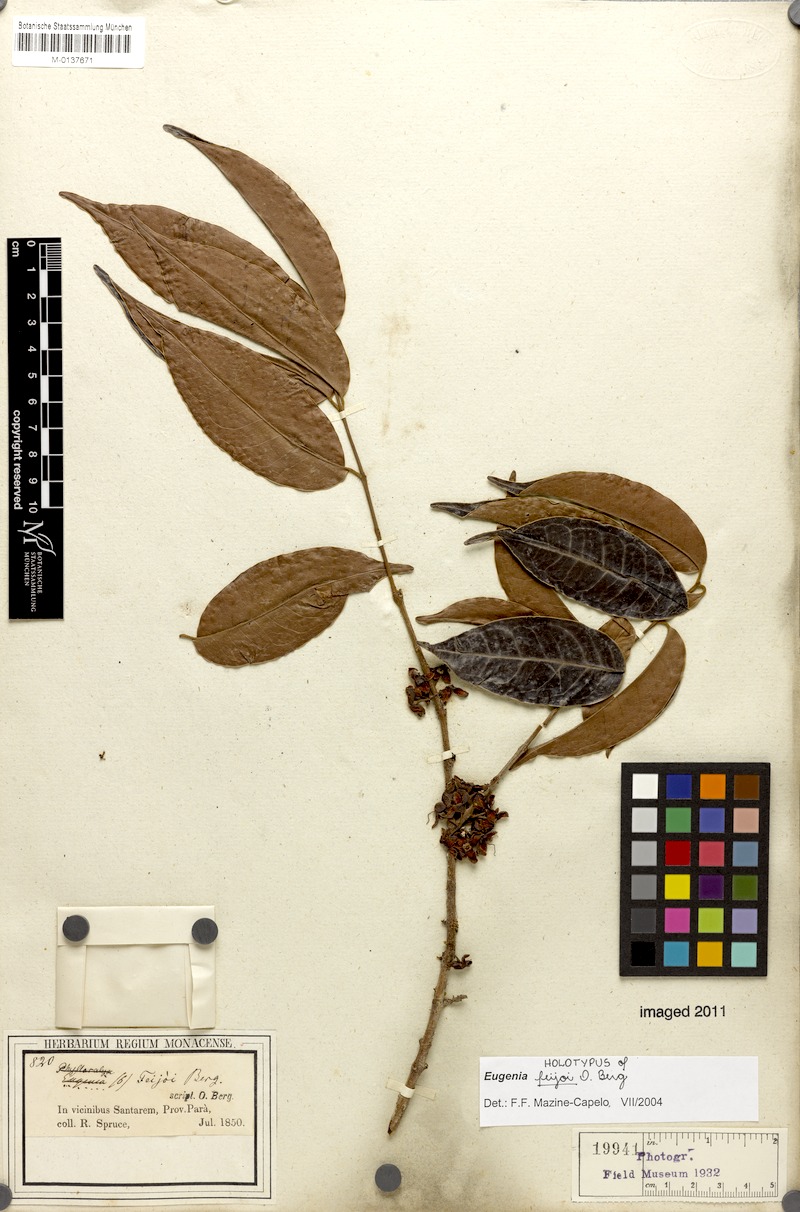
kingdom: Plantae
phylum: Tracheophyta
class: Magnoliopsida
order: Myrtales
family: Myrtaceae
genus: Eugenia
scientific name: Eugenia moschata
